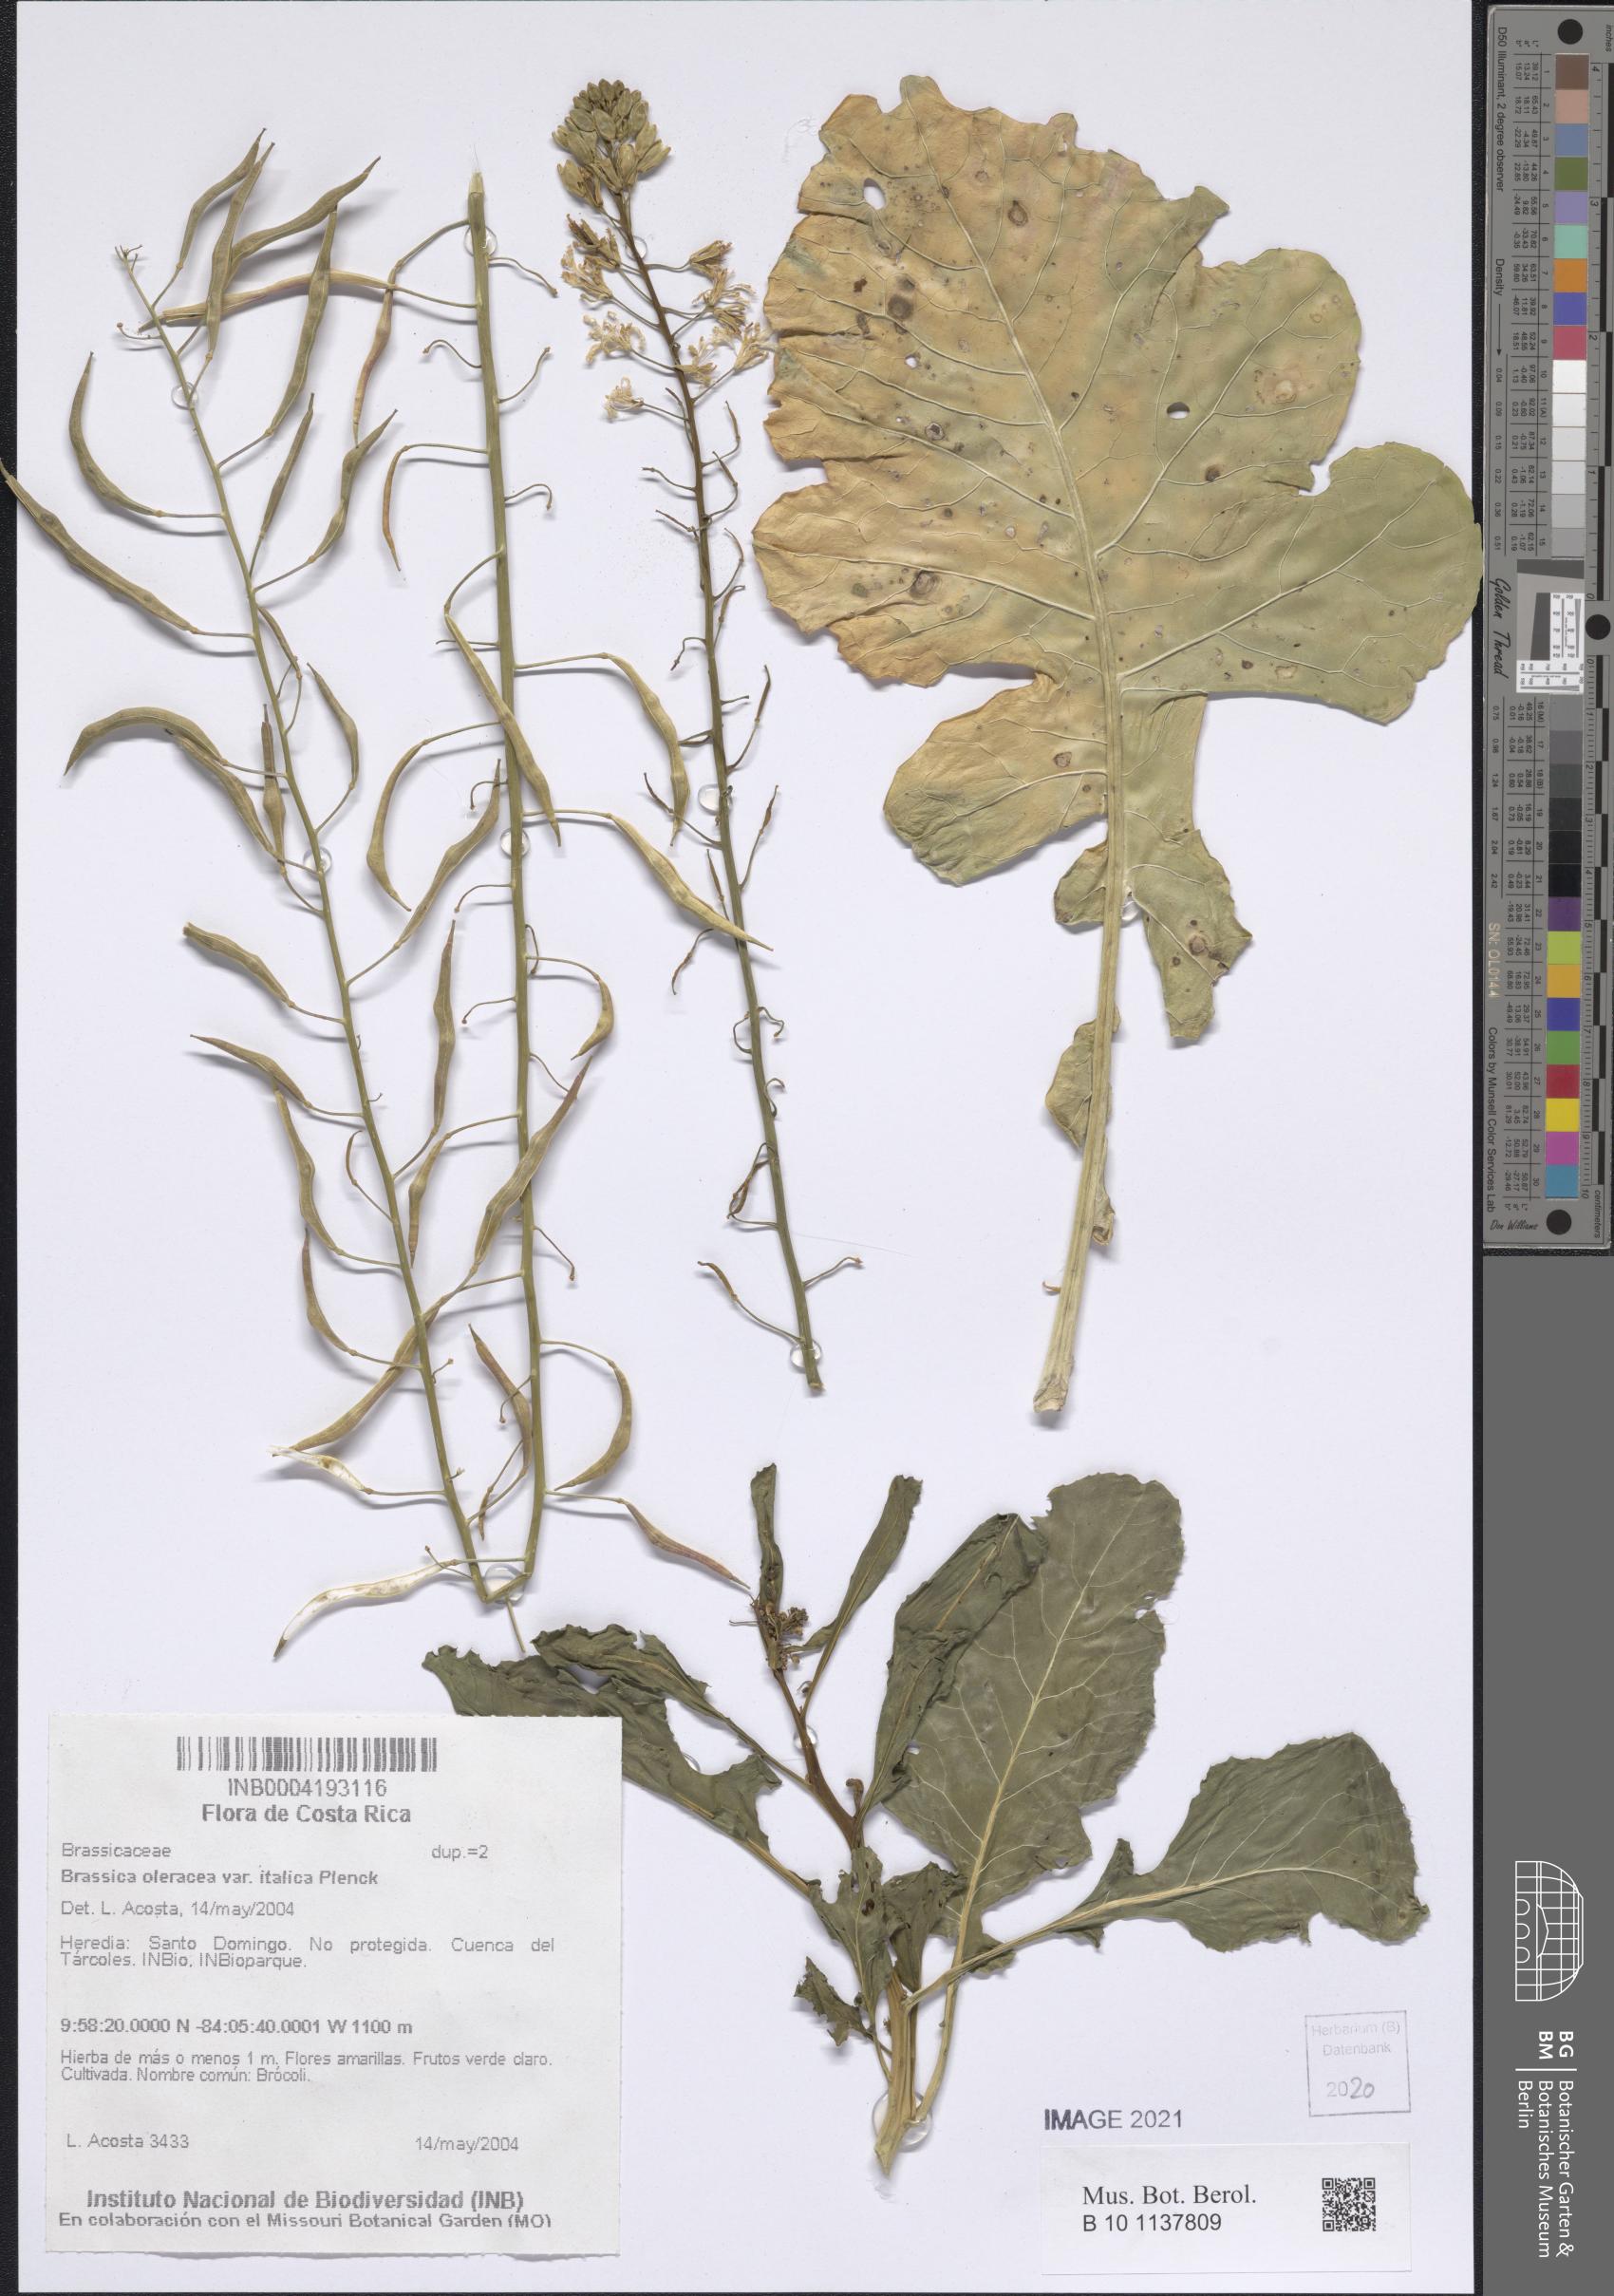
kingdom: Plantae
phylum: Tracheophyta
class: Magnoliopsida
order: Brassicales
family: Brassicaceae
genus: Brassica
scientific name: Brassica oleracea
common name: Cabbage
